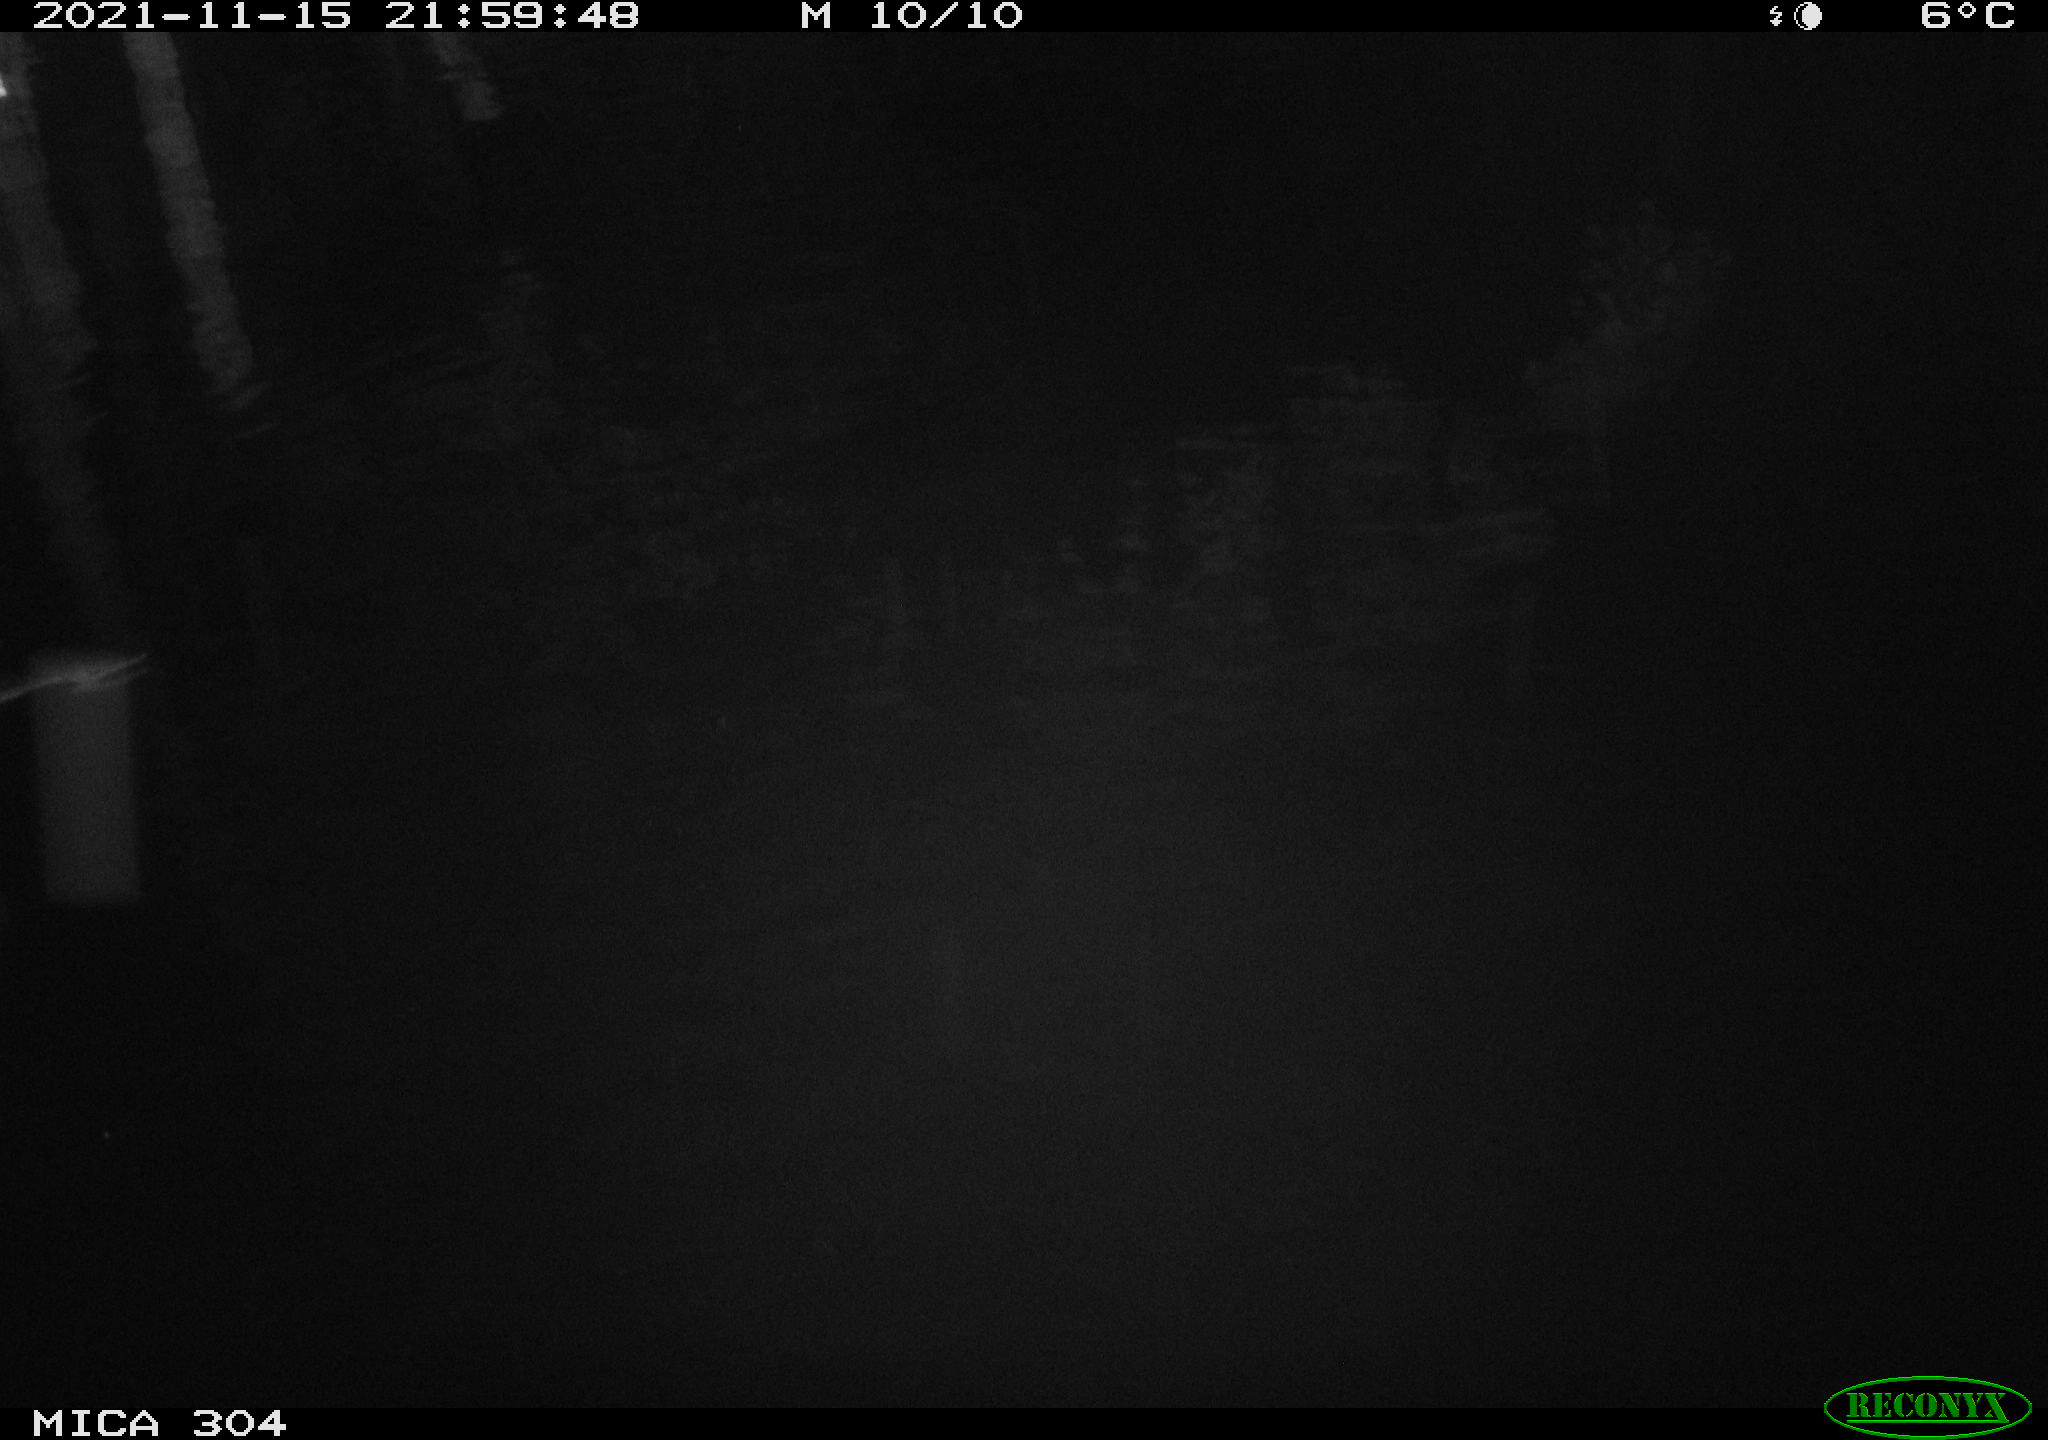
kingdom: Animalia
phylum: Chordata
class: Aves
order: Anseriformes
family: Anatidae
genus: Anas
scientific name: Anas platyrhynchos
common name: Mallard
